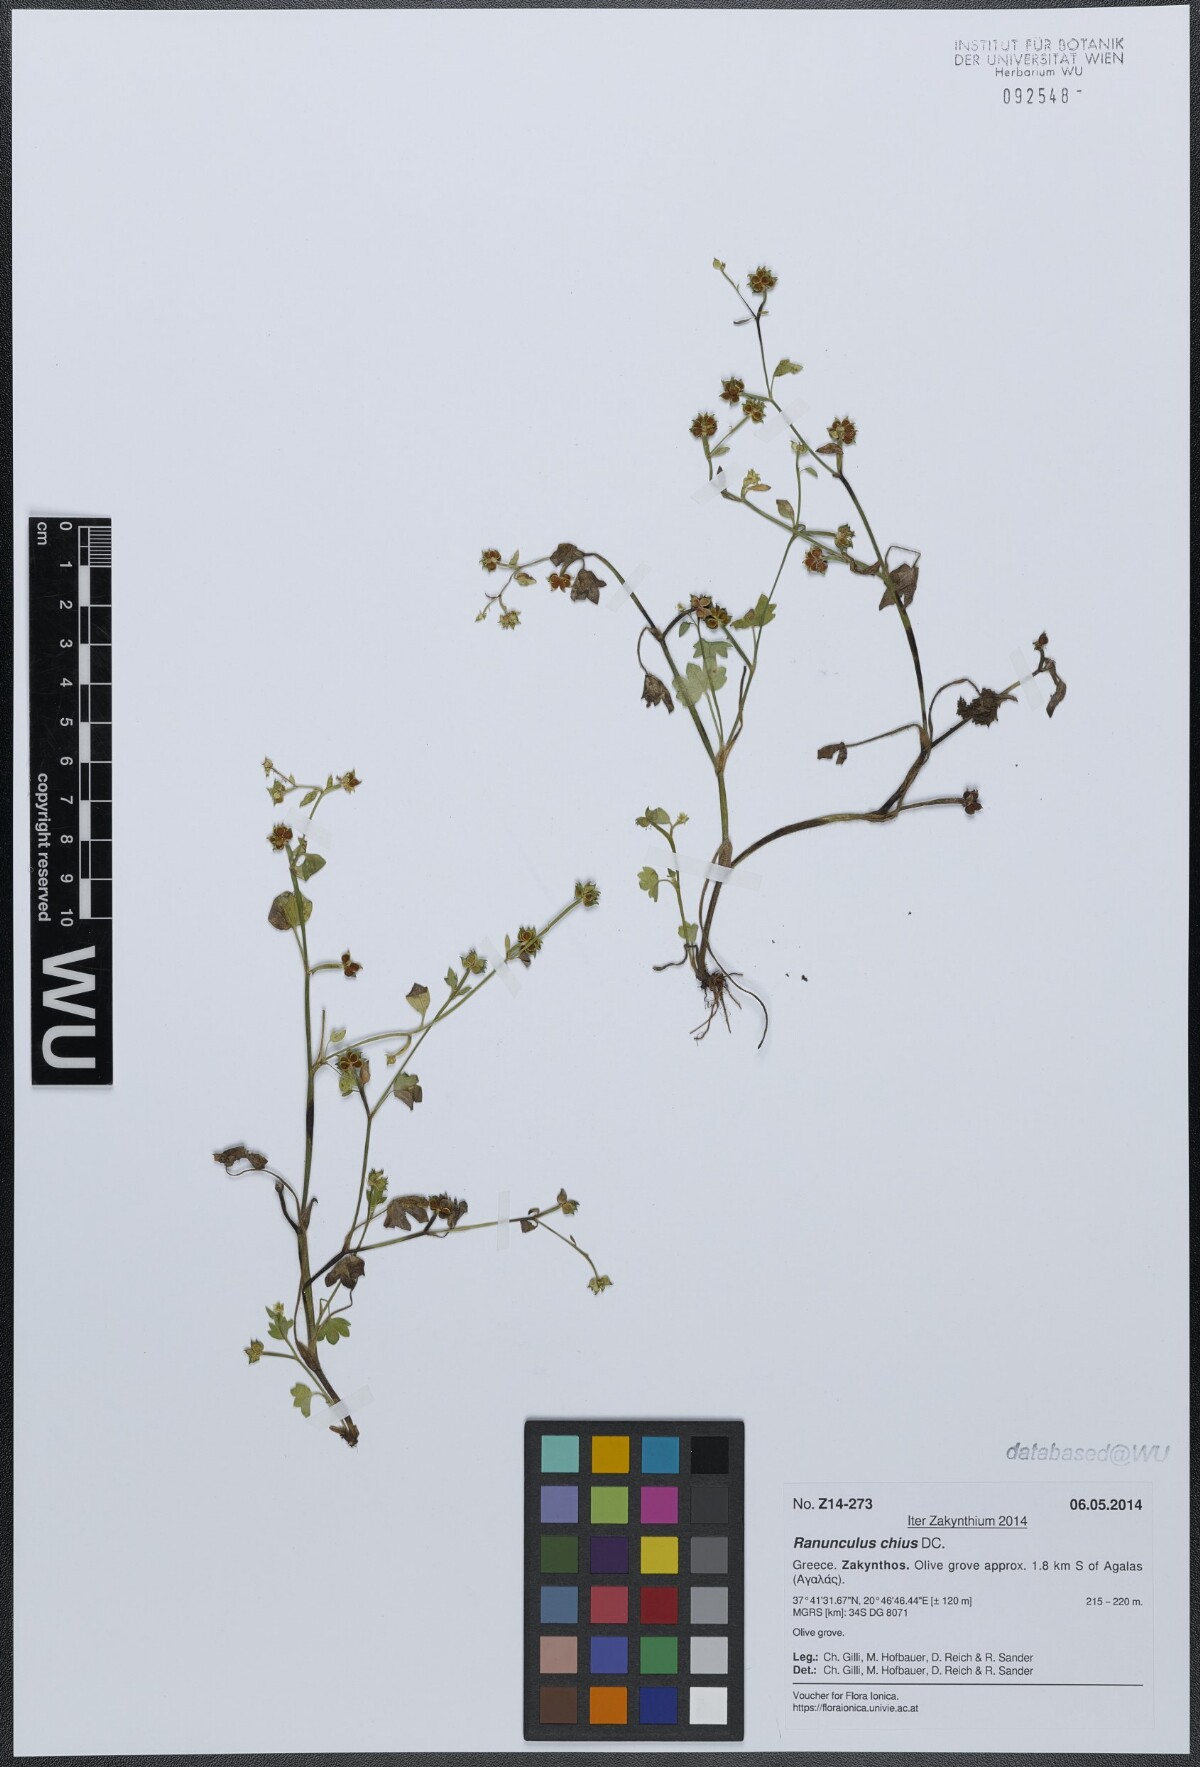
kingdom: Plantae
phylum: Tracheophyta
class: Magnoliopsida
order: Ranunculales
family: Ranunculaceae
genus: Ranunculus
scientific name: Ranunculus chius
